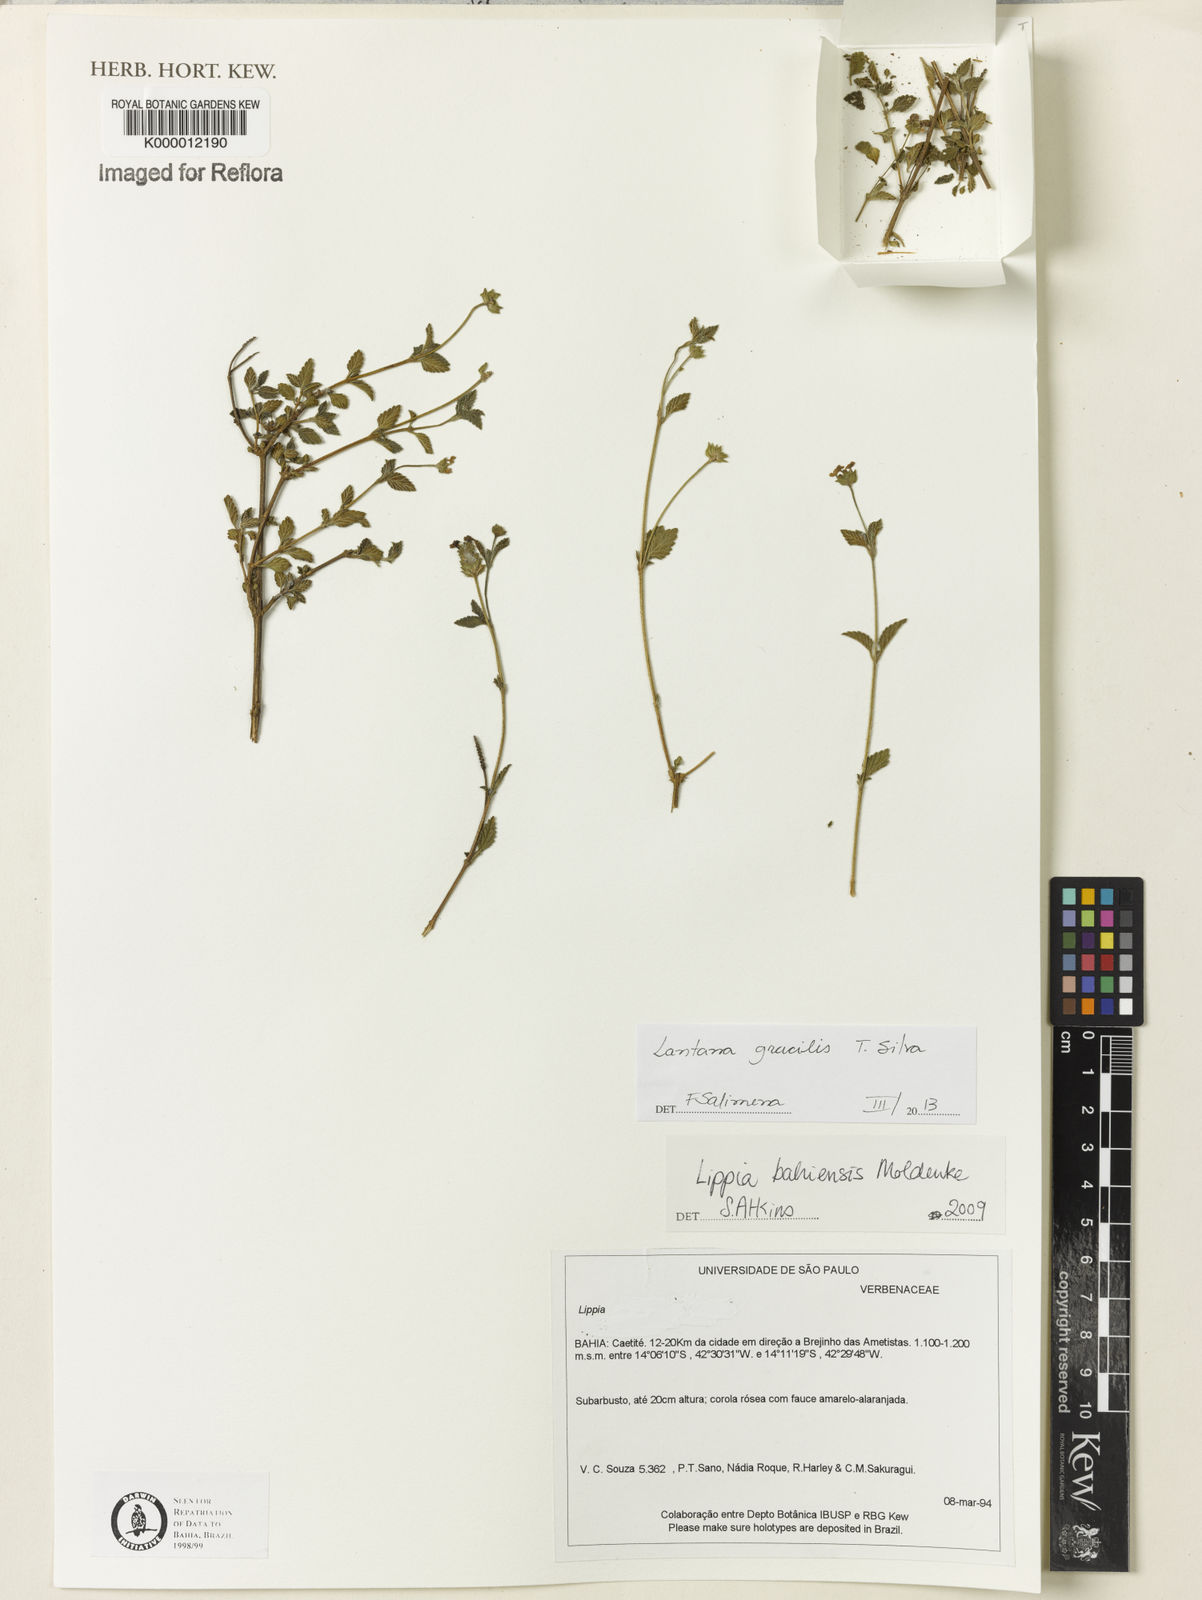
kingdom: Plantae
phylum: Tracheophyta
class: Magnoliopsida
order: Lamiales
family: Verbenaceae
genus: Lippia
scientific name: Lippia
